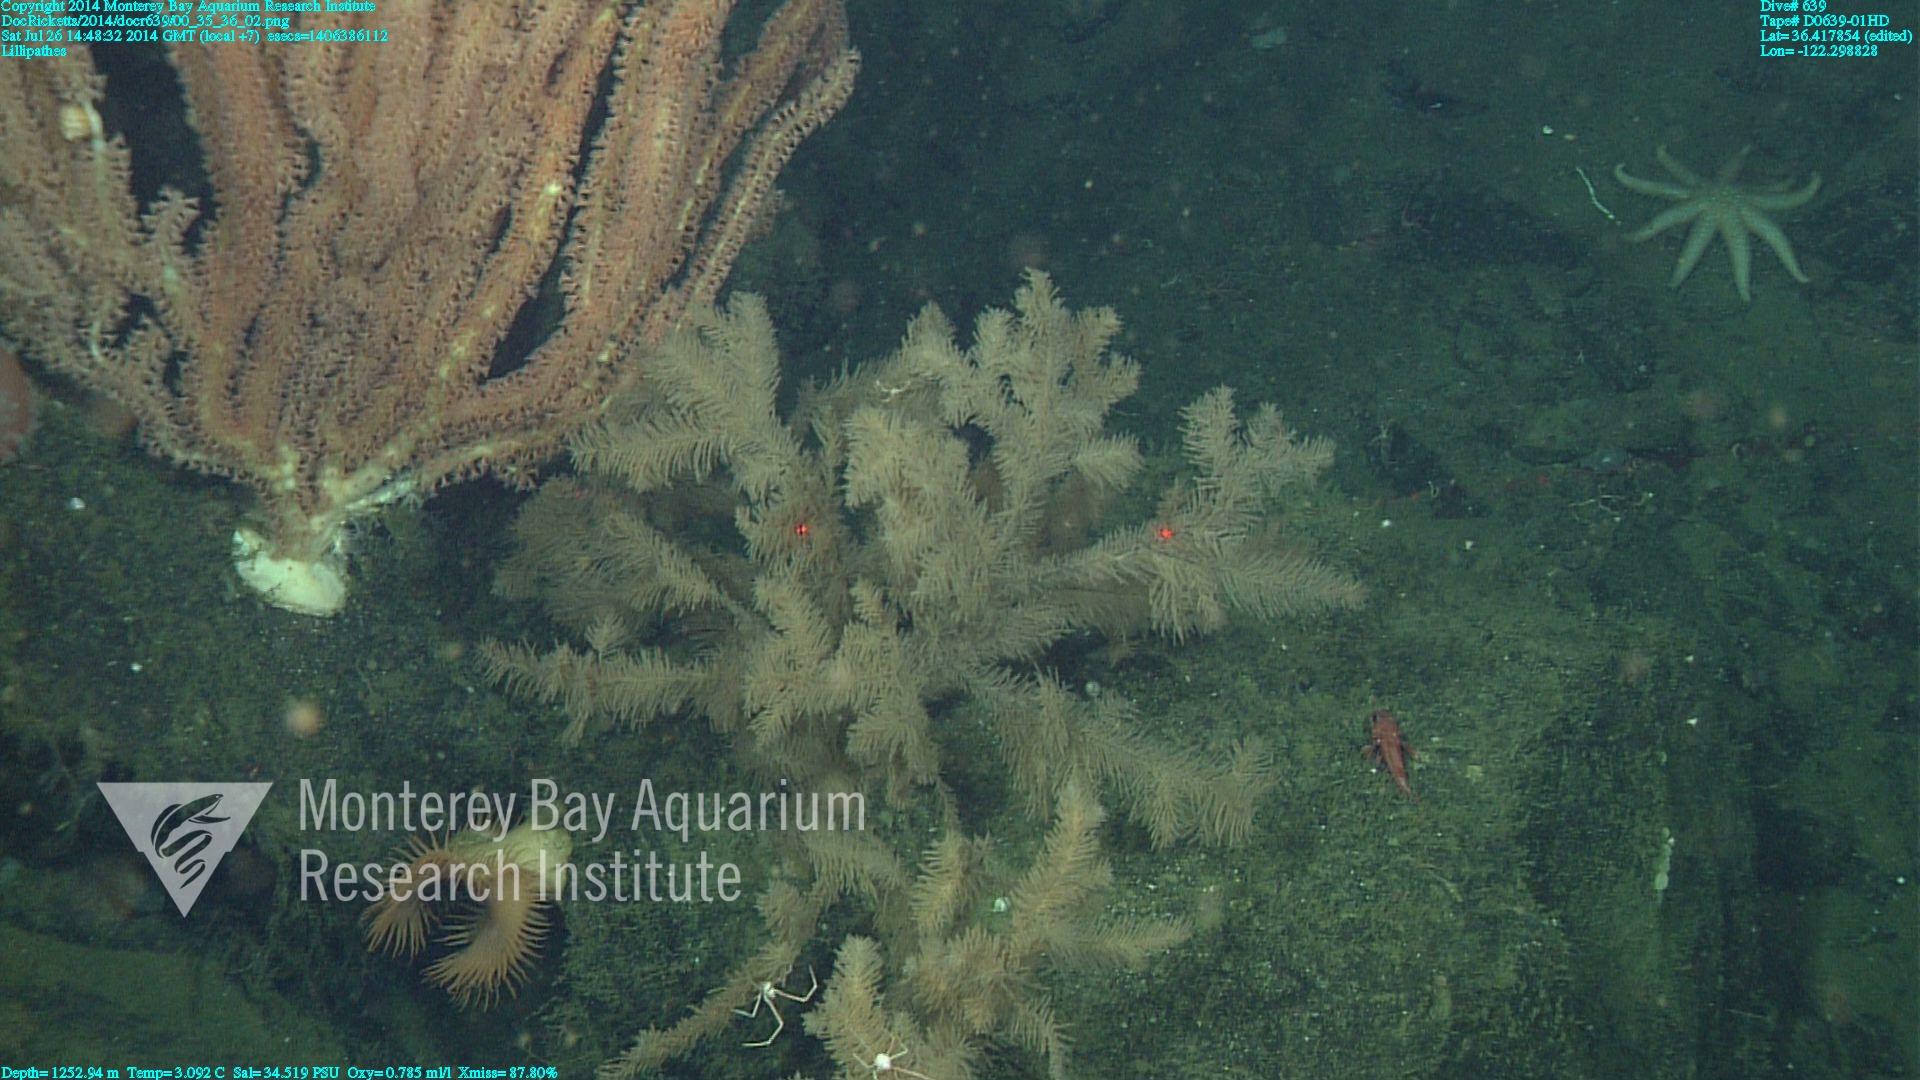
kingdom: Animalia
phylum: Cnidaria
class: Anthozoa
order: Antipatharia
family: Schizopathidae
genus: Lillipathes
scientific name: Lillipathes
